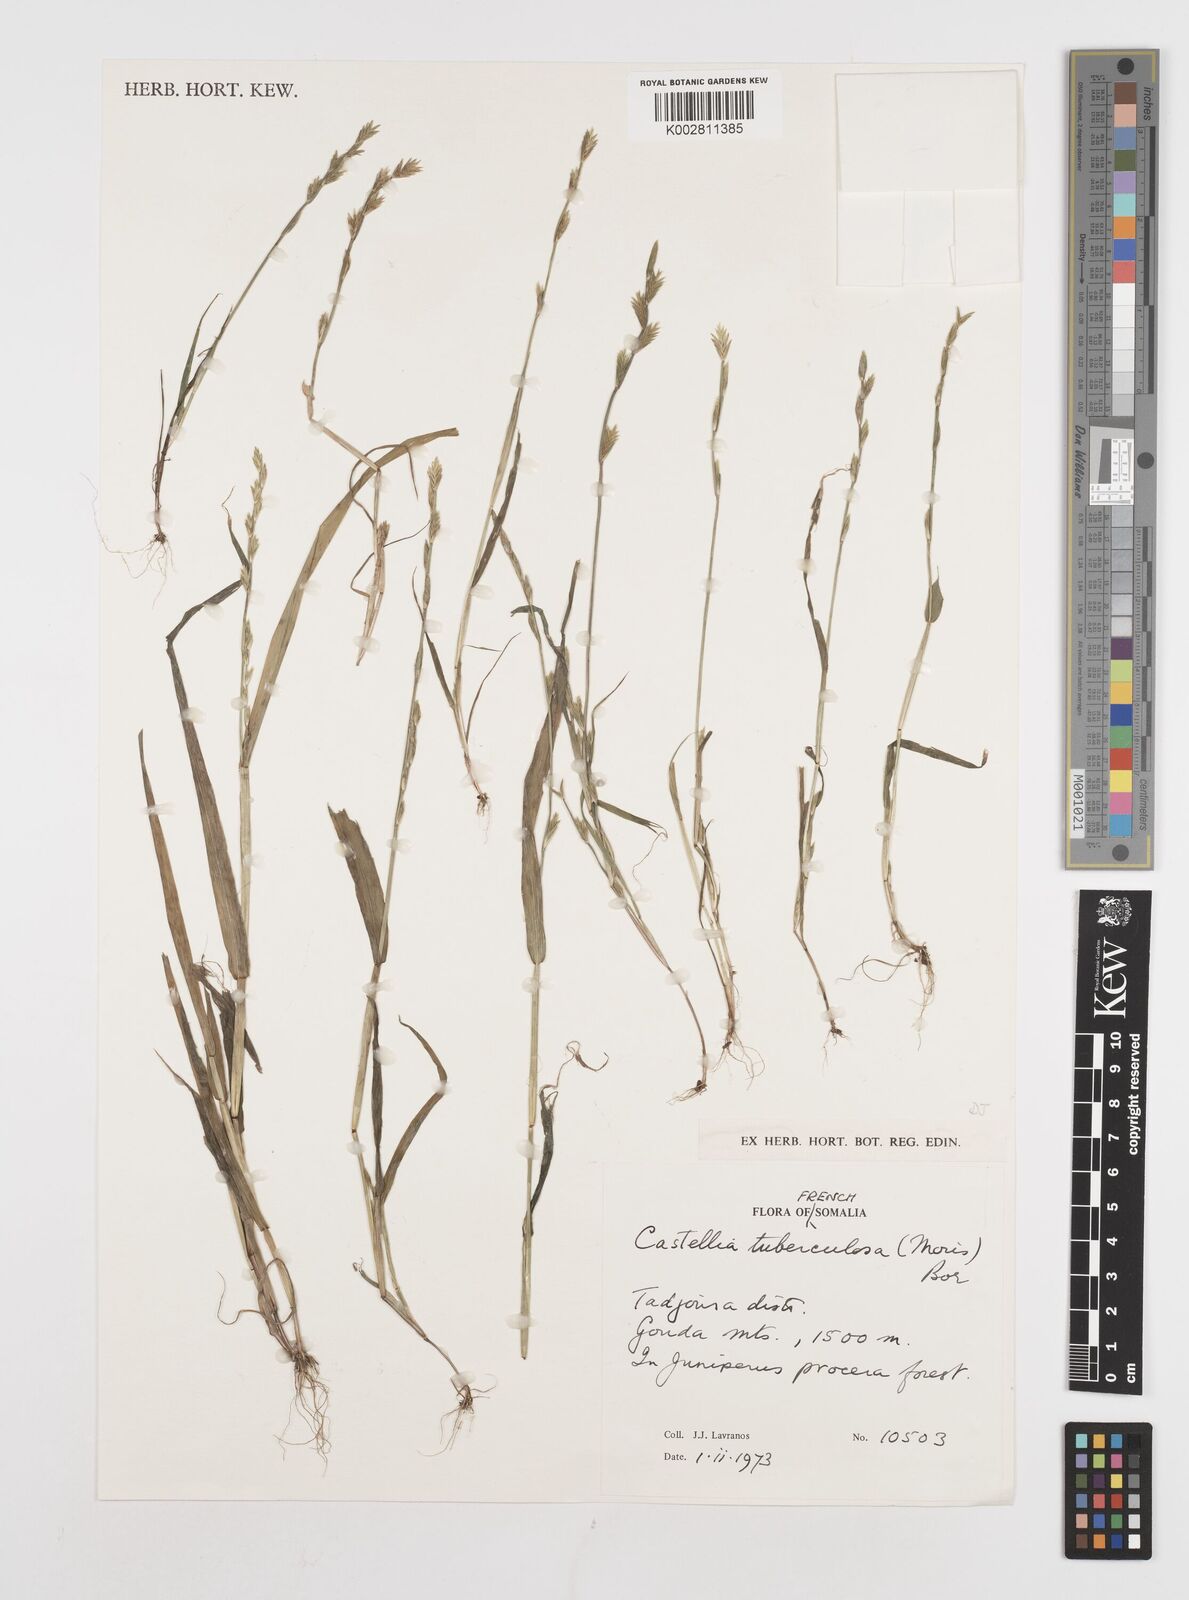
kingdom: Plantae
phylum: Tracheophyta
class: Liliopsida
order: Poales
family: Poaceae
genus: Castellia
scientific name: Castellia tuberculosa
